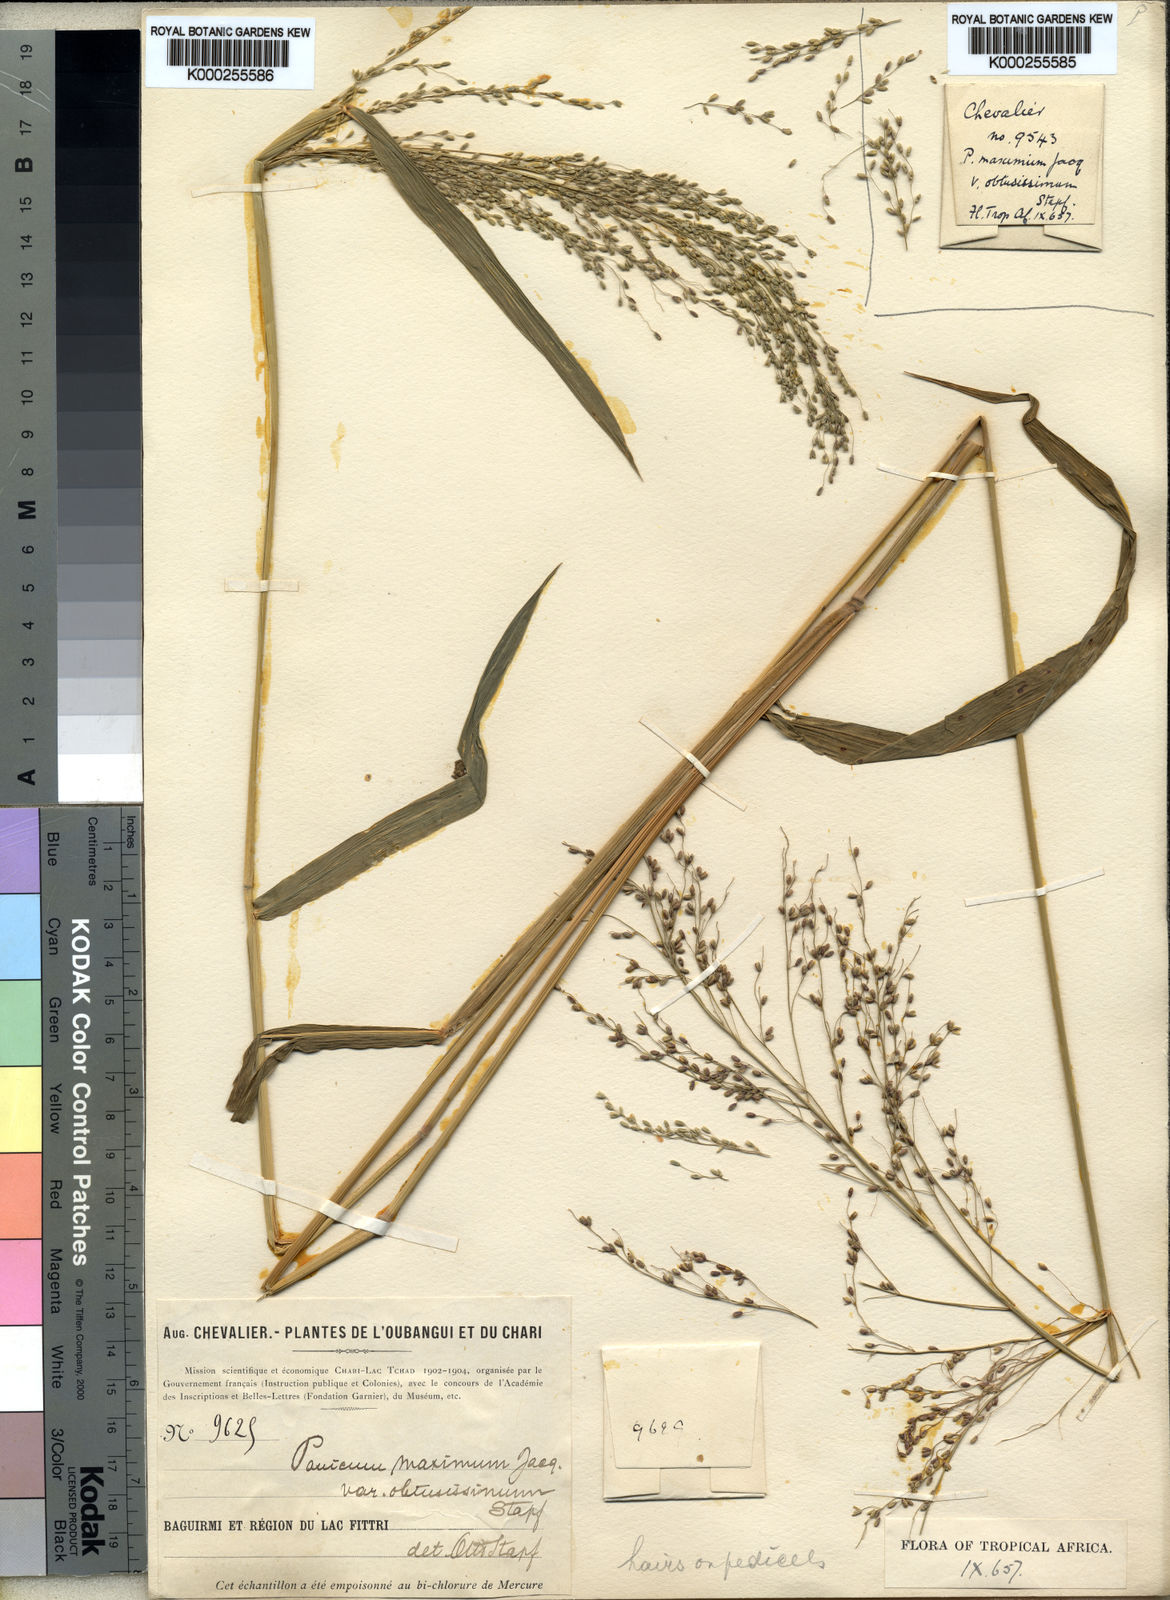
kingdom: Plantae
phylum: Tracheophyta
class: Liliopsida
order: Poales
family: Poaceae
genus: Megathyrsus
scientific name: Megathyrsus maximus
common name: Guineagrass
